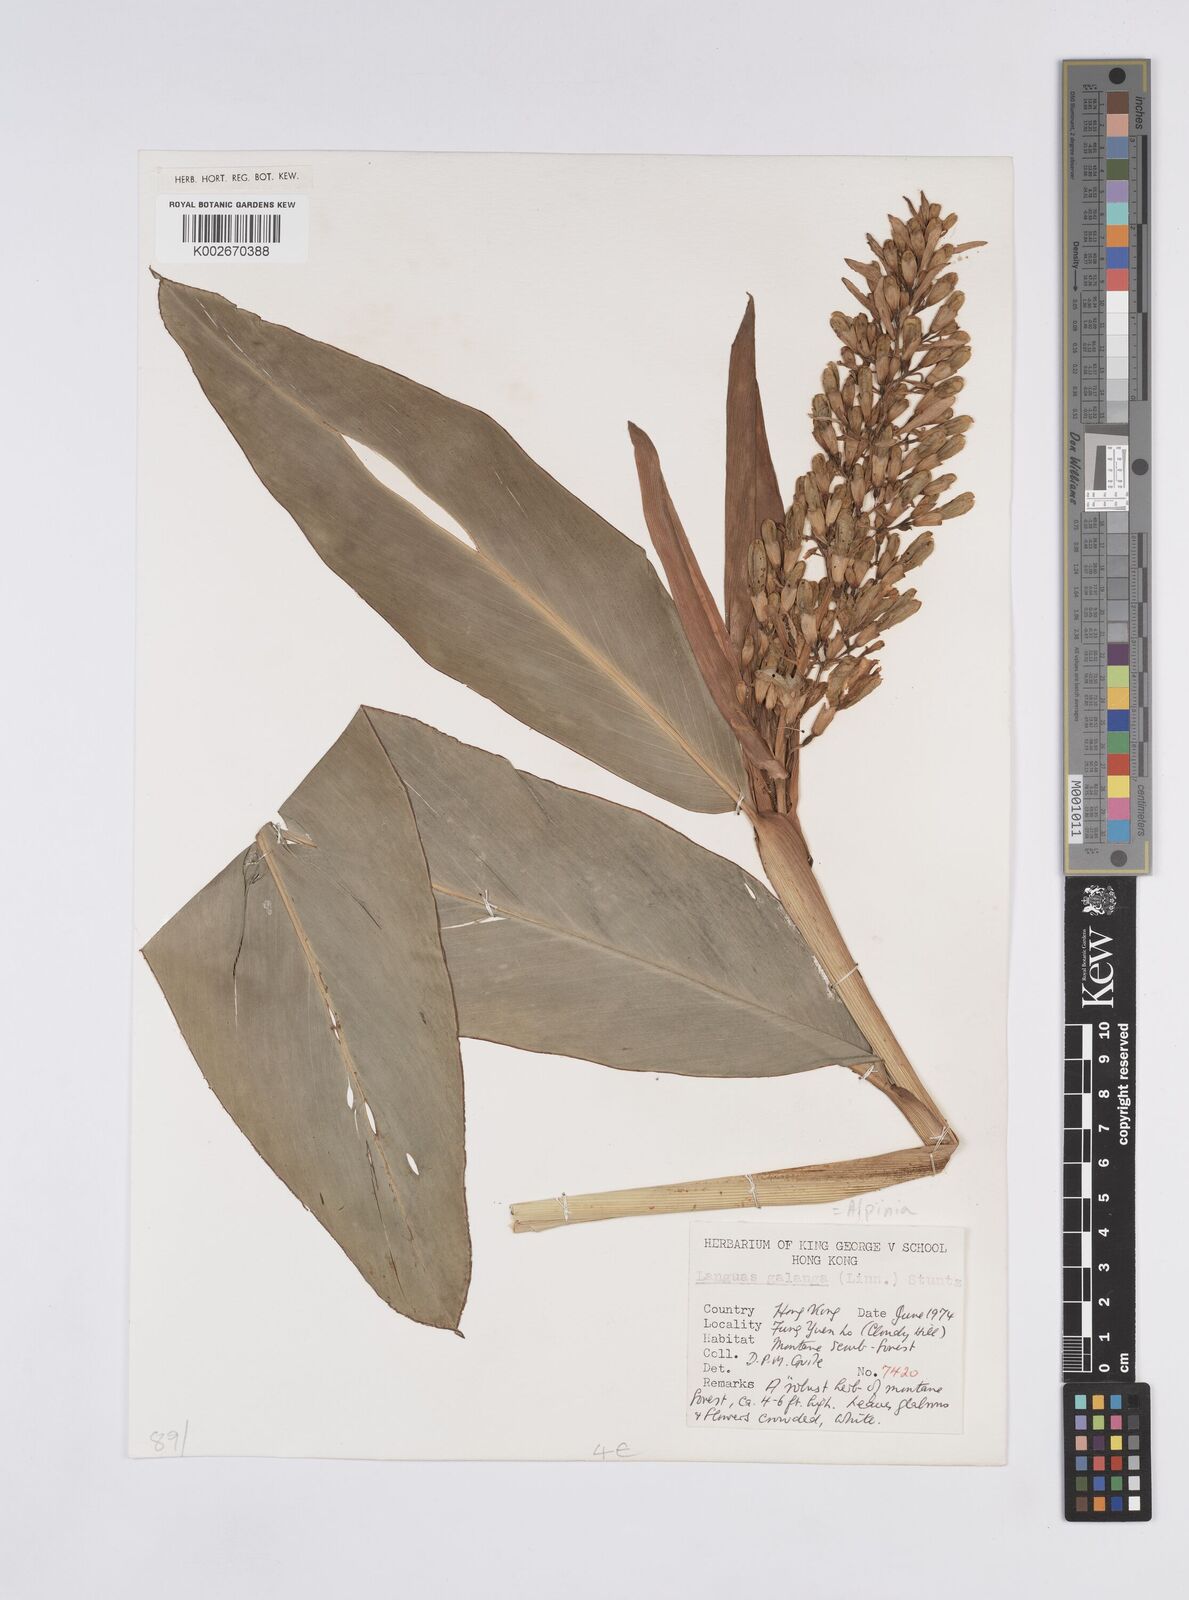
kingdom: Plantae
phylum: Tracheophyta
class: Liliopsida
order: Zingiberales
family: Zingiberaceae
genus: Alpinia
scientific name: Alpinia galanga
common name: Siamese-ginger
